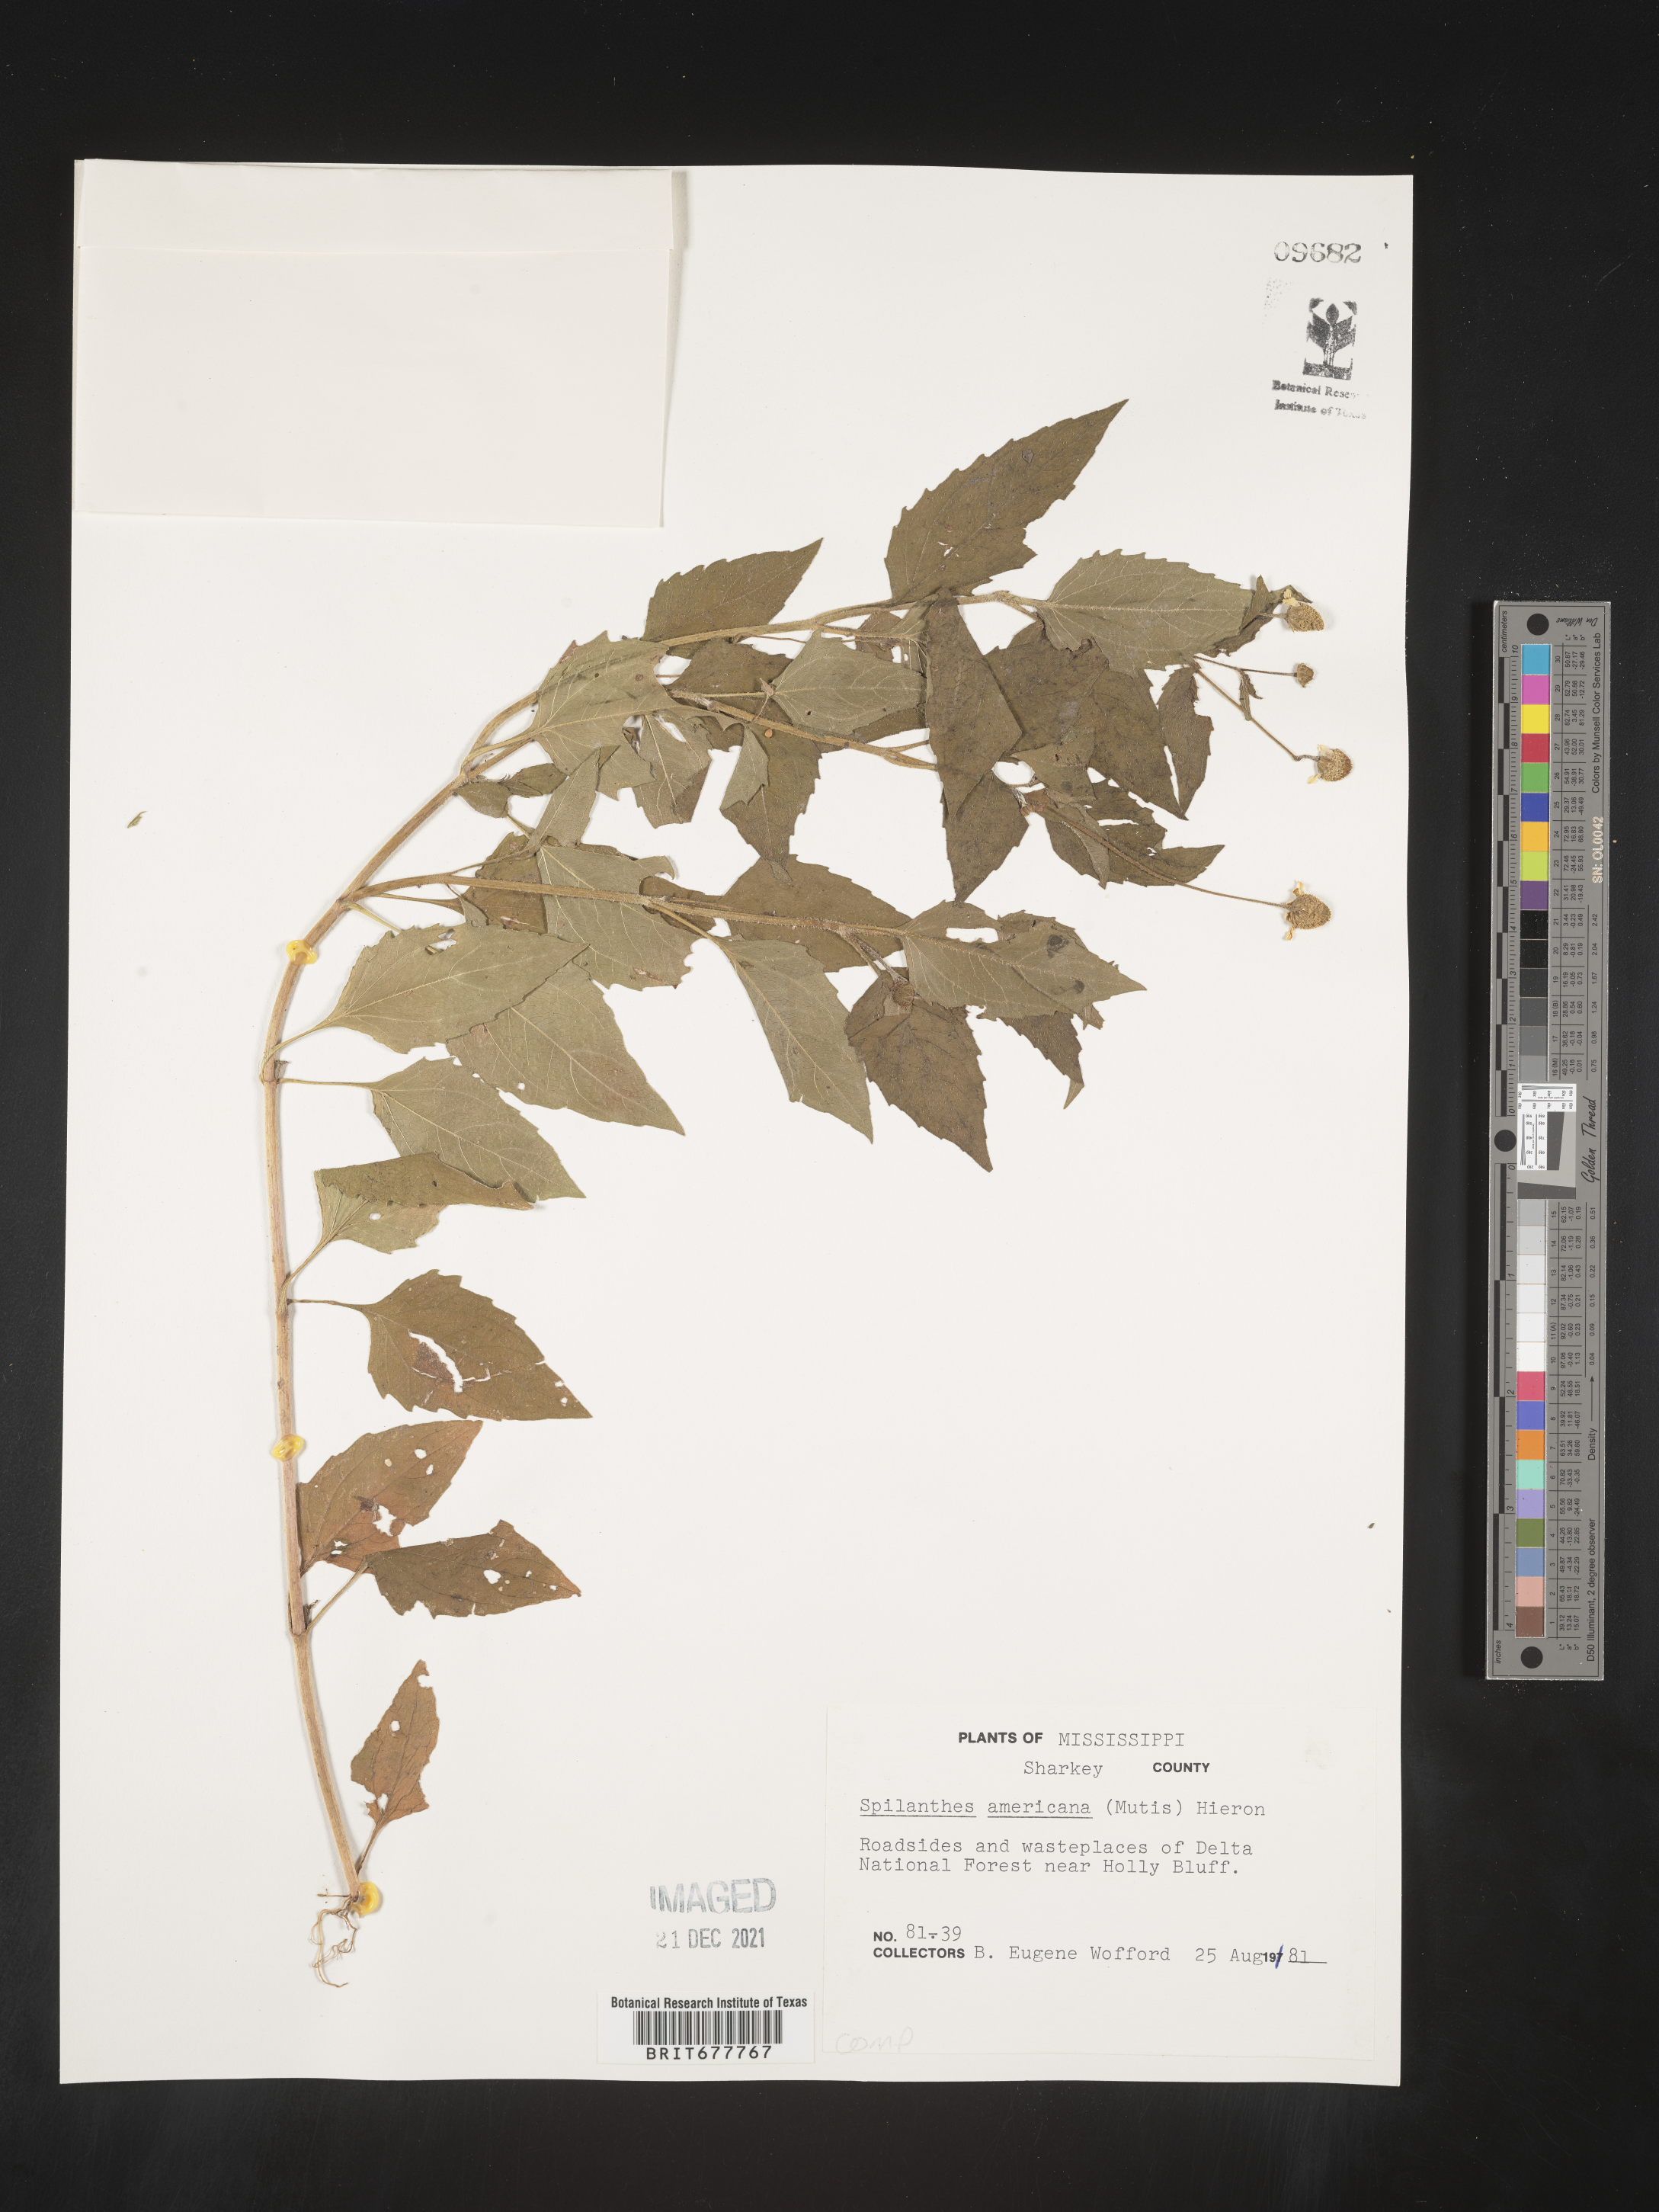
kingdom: Plantae
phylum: Tracheophyta
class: Magnoliopsida
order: Asterales
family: Asteraceae
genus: Spilanthes
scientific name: Spilanthes
